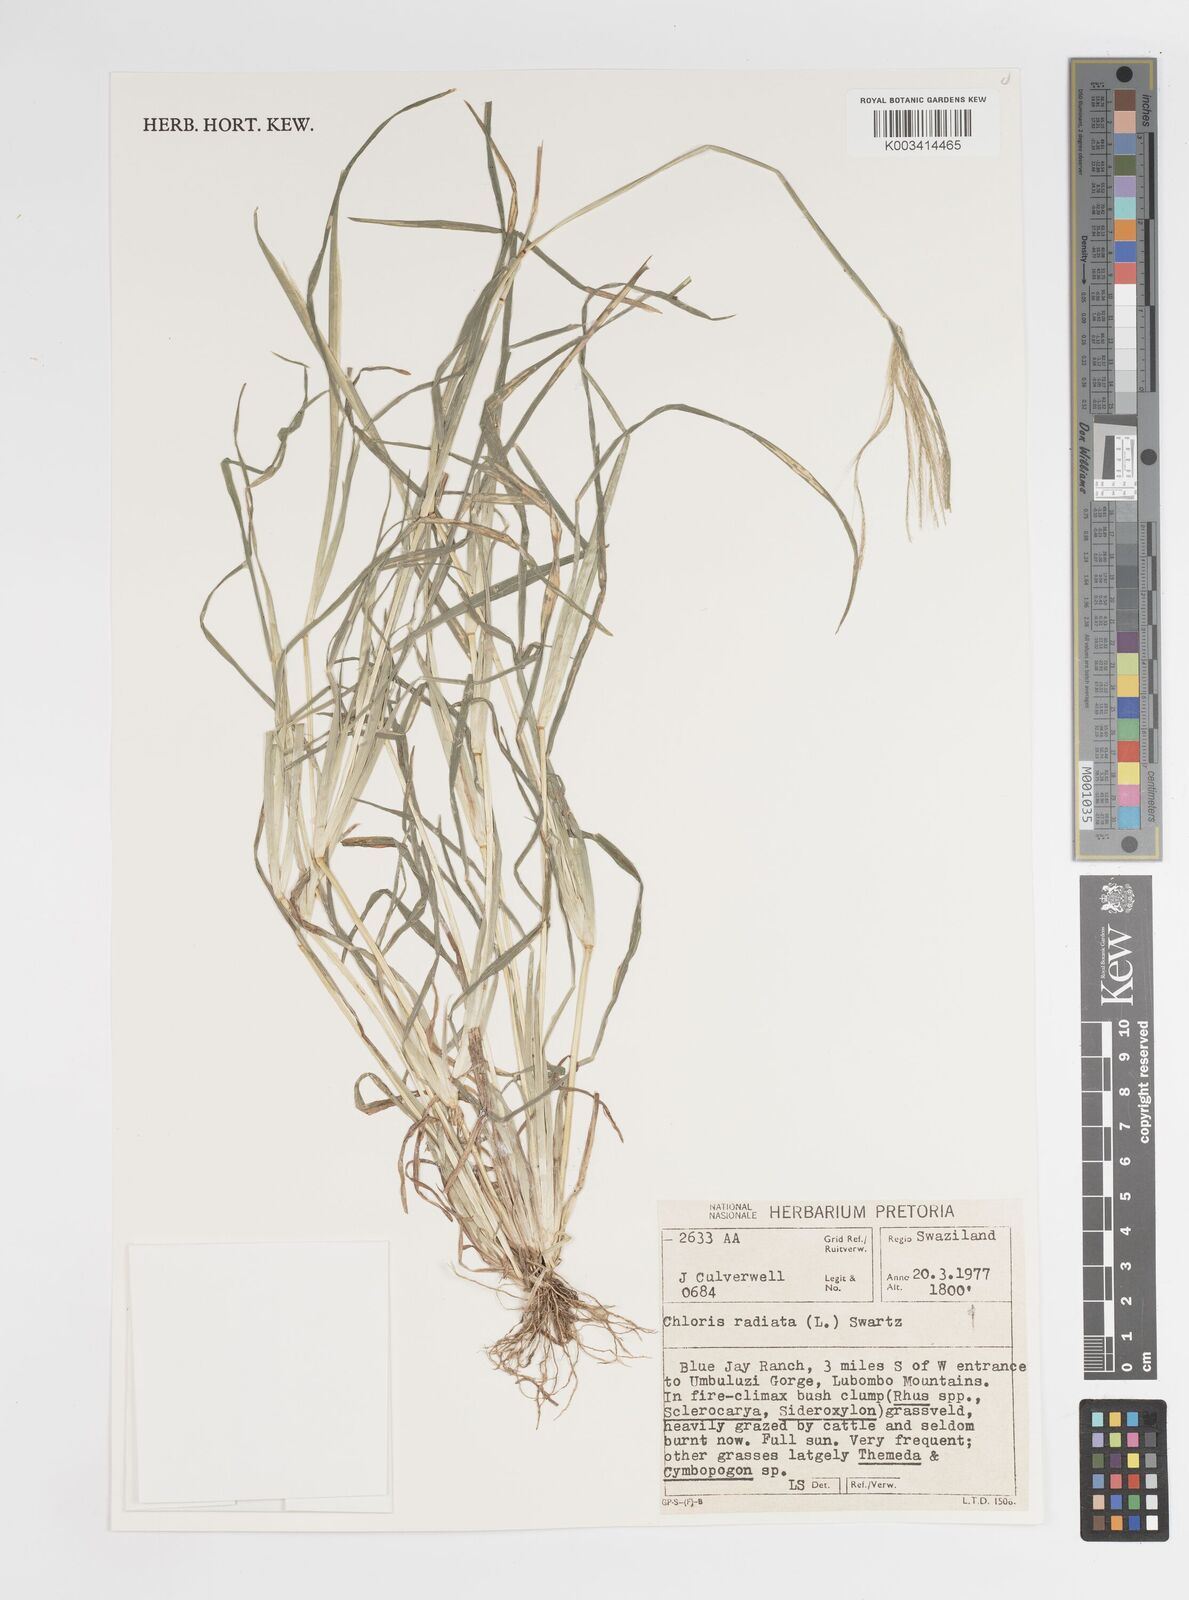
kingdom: Plantae
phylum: Tracheophyta
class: Liliopsida
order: Poales
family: Poaceae
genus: Chloris
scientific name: Chloris radiata
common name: Radiate fingergrass
